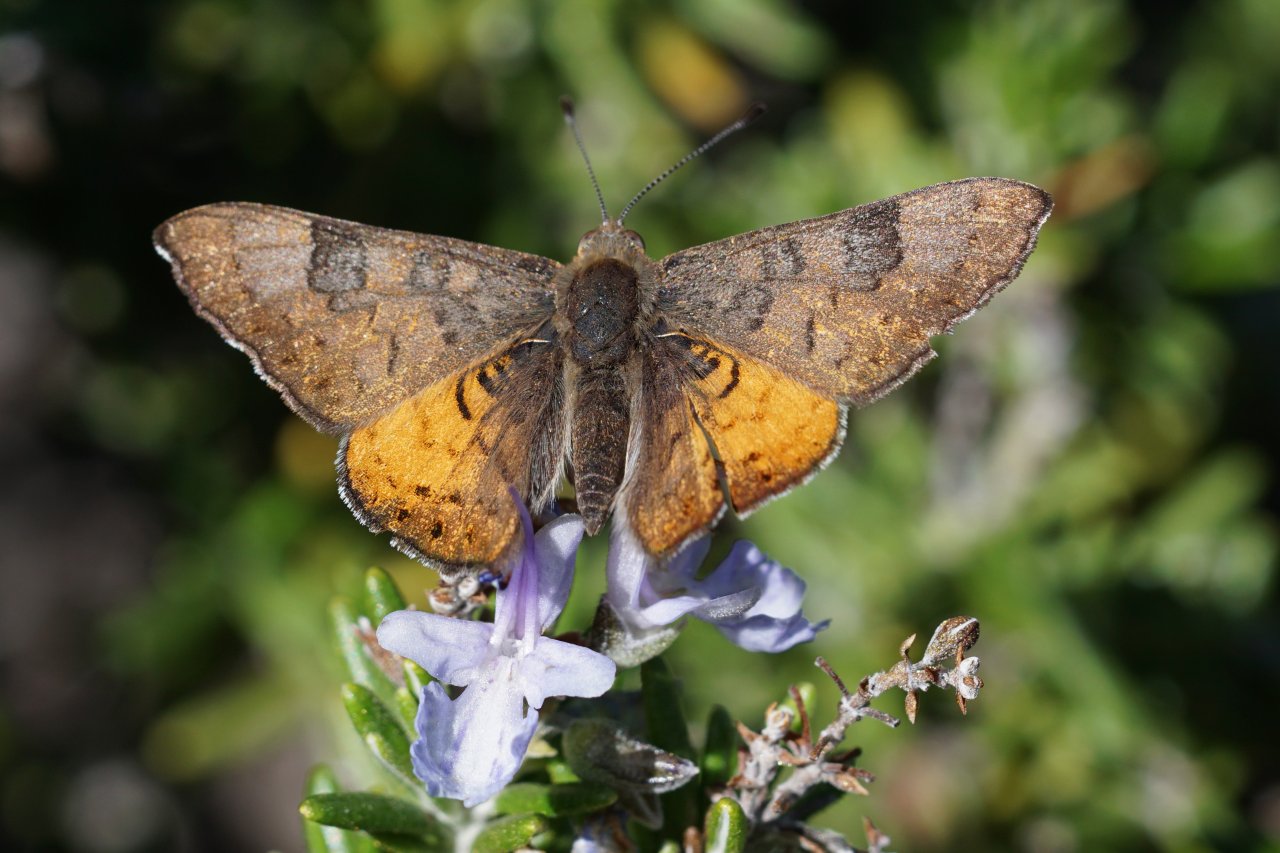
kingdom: Animalia
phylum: Arthropoda
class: Insecta
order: Lepidoptera
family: Lycaenidae
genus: Emesis
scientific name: Emesis zela
